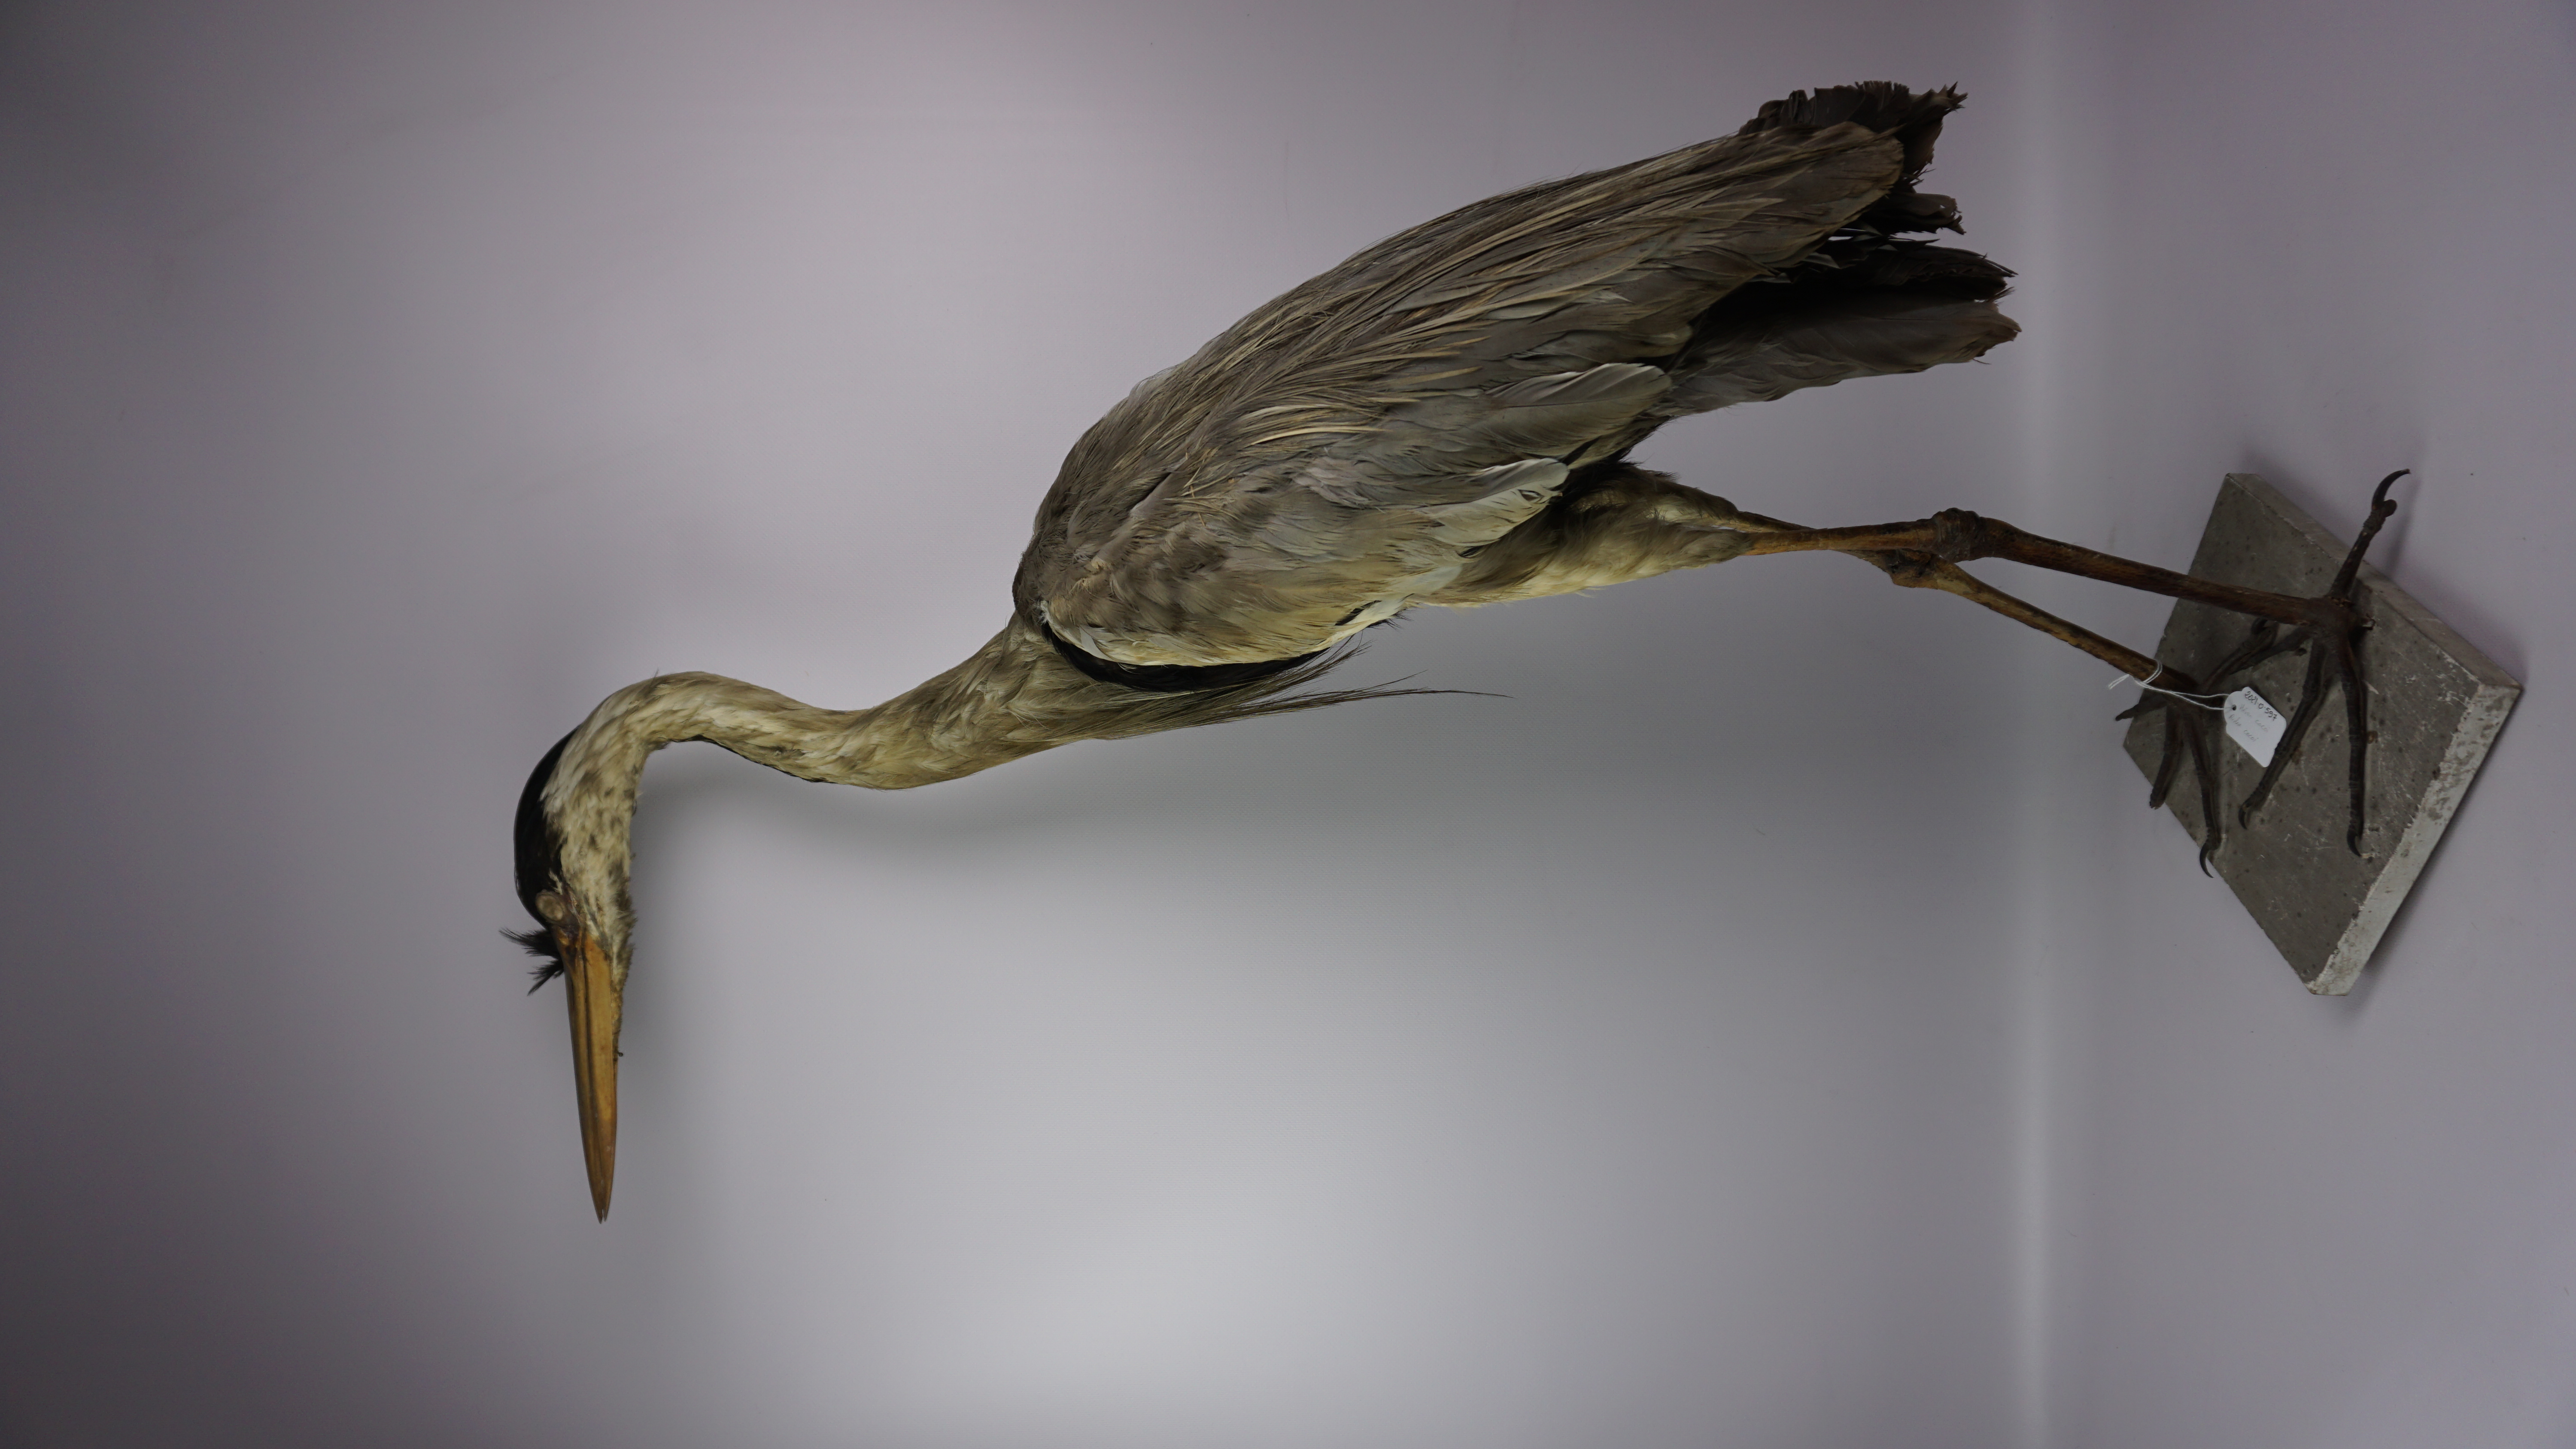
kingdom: Animalia
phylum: Chordata
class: Aves
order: Pelecaniformes
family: Ardeidae
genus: Ardea
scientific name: Ardea cocoi
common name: Cocoi heron
